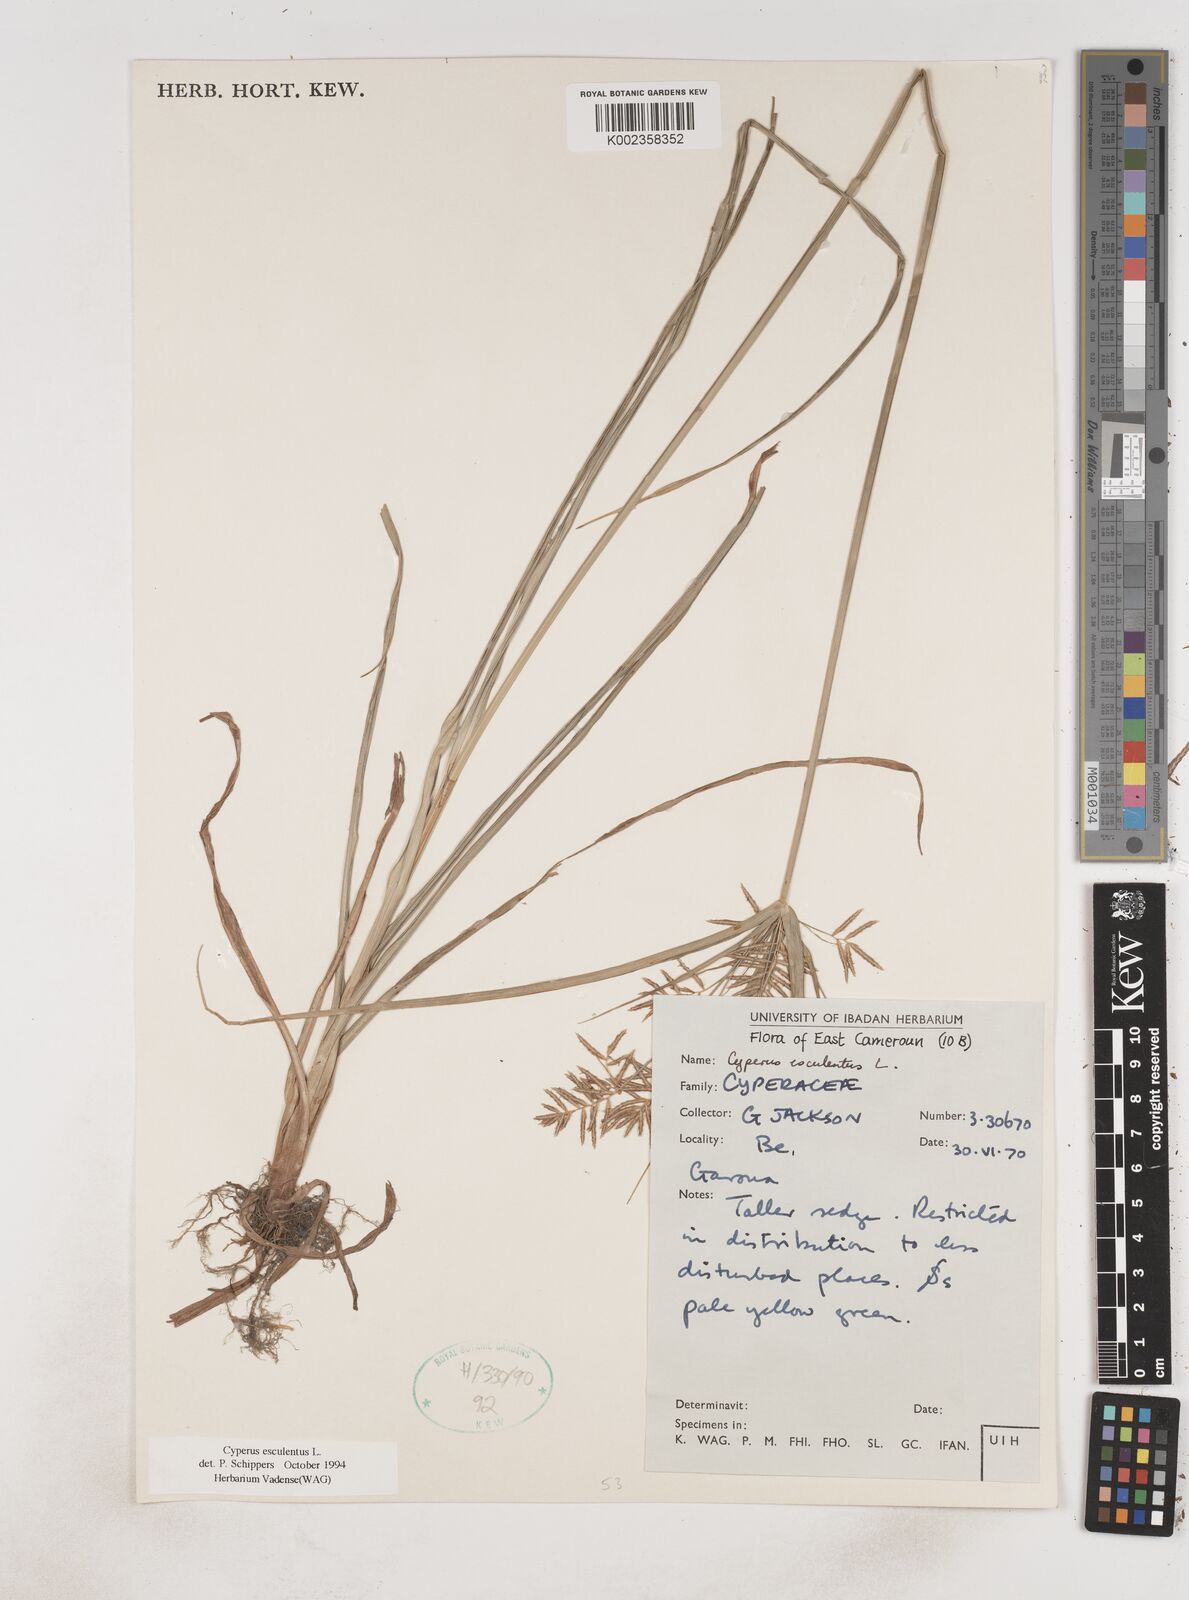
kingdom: Plantae
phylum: Tracheophyta
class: Liliopsida
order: Poales
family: Cyperaceae
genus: Cyperus
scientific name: Cyperus esculentus
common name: Yellow nutsedge
